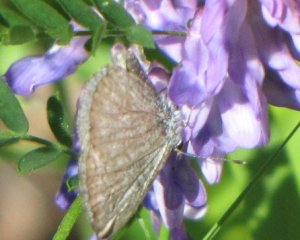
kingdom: Animalia
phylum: Arthropoda
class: Insecta
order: Lepidoptera
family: Lycaenidae
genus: Celastrina
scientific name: Celastrina
